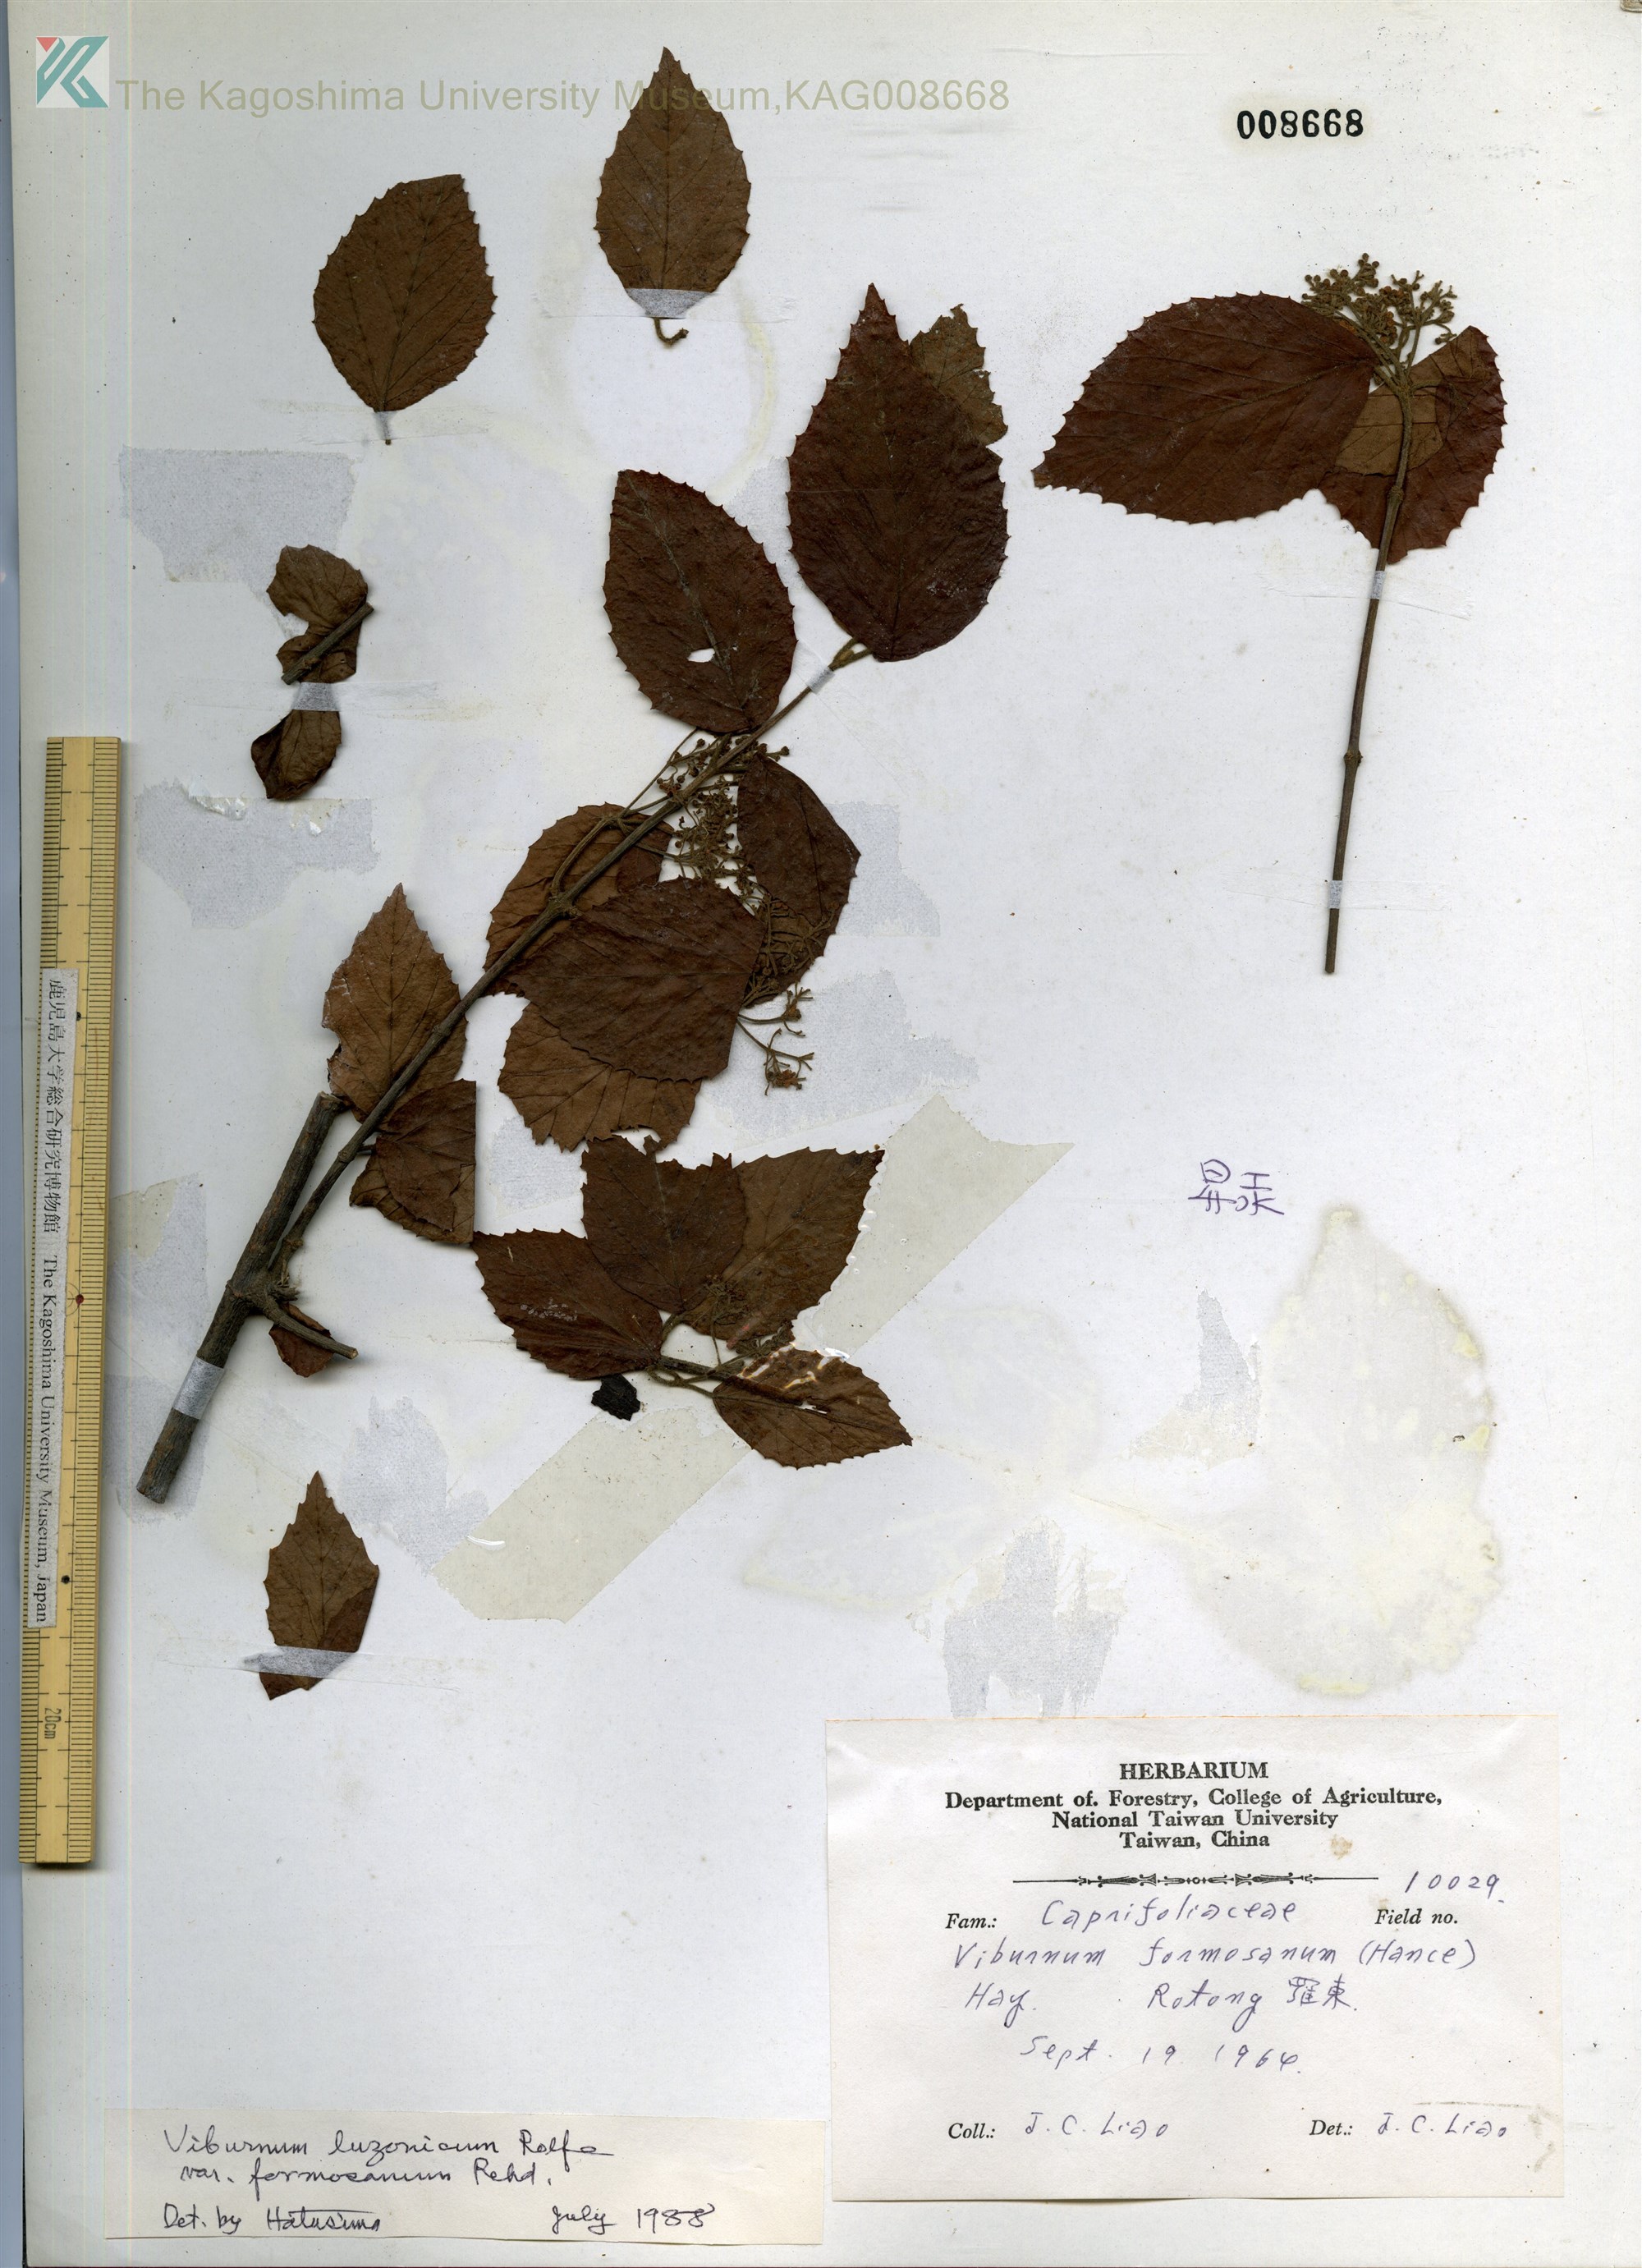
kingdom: Plantae
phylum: Tracheophyta
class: Magnoliopsida
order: Dipsacales
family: Viburnaceae
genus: Viburnum
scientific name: Viburnum formosanum
